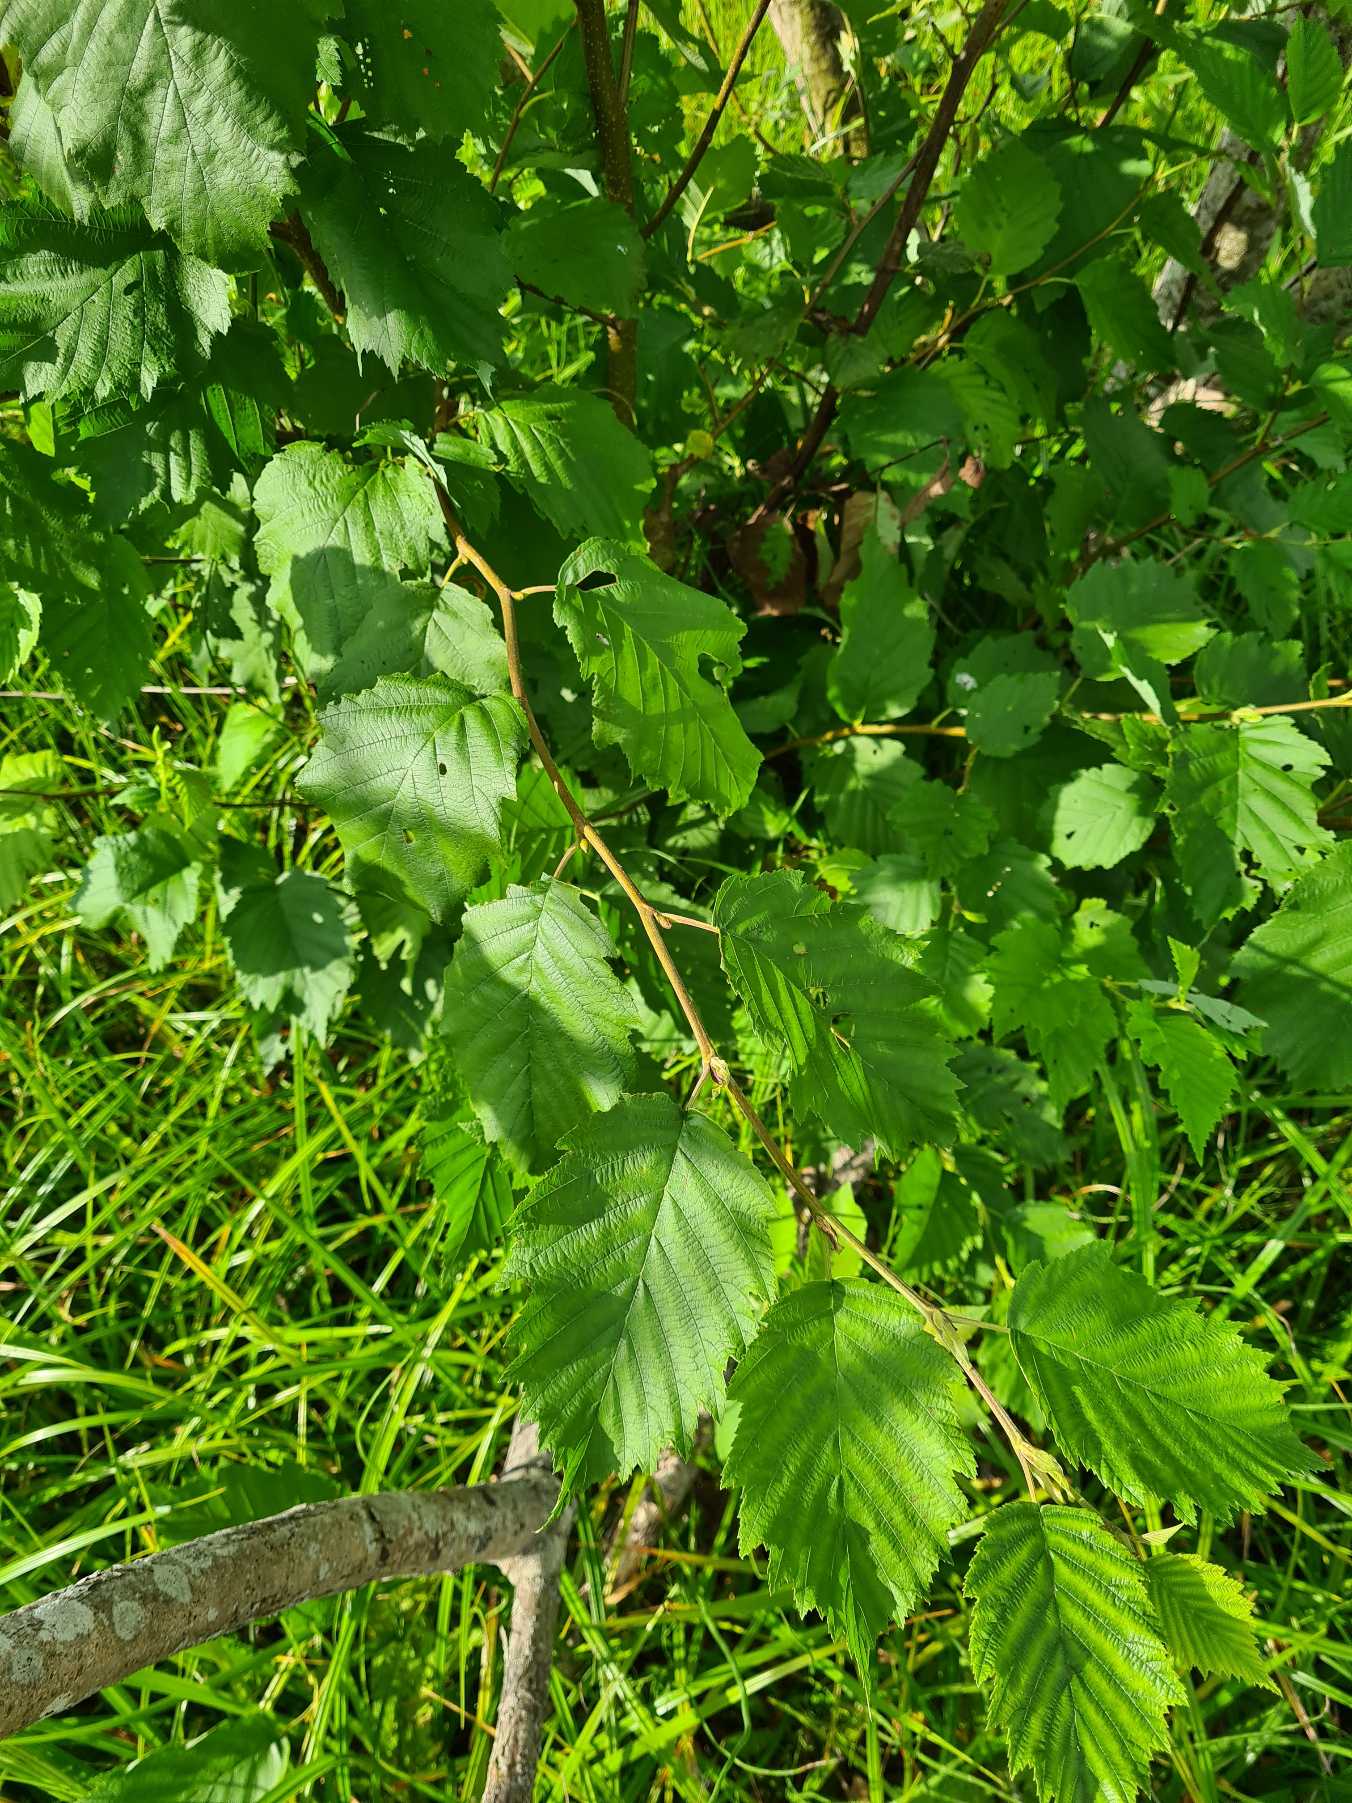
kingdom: Plantae
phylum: Tracheophyta
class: Magnoliopsida
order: Fagales
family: Betulaceae
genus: Alnus
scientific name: Alnus incana
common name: Grå-el/hvid-el
